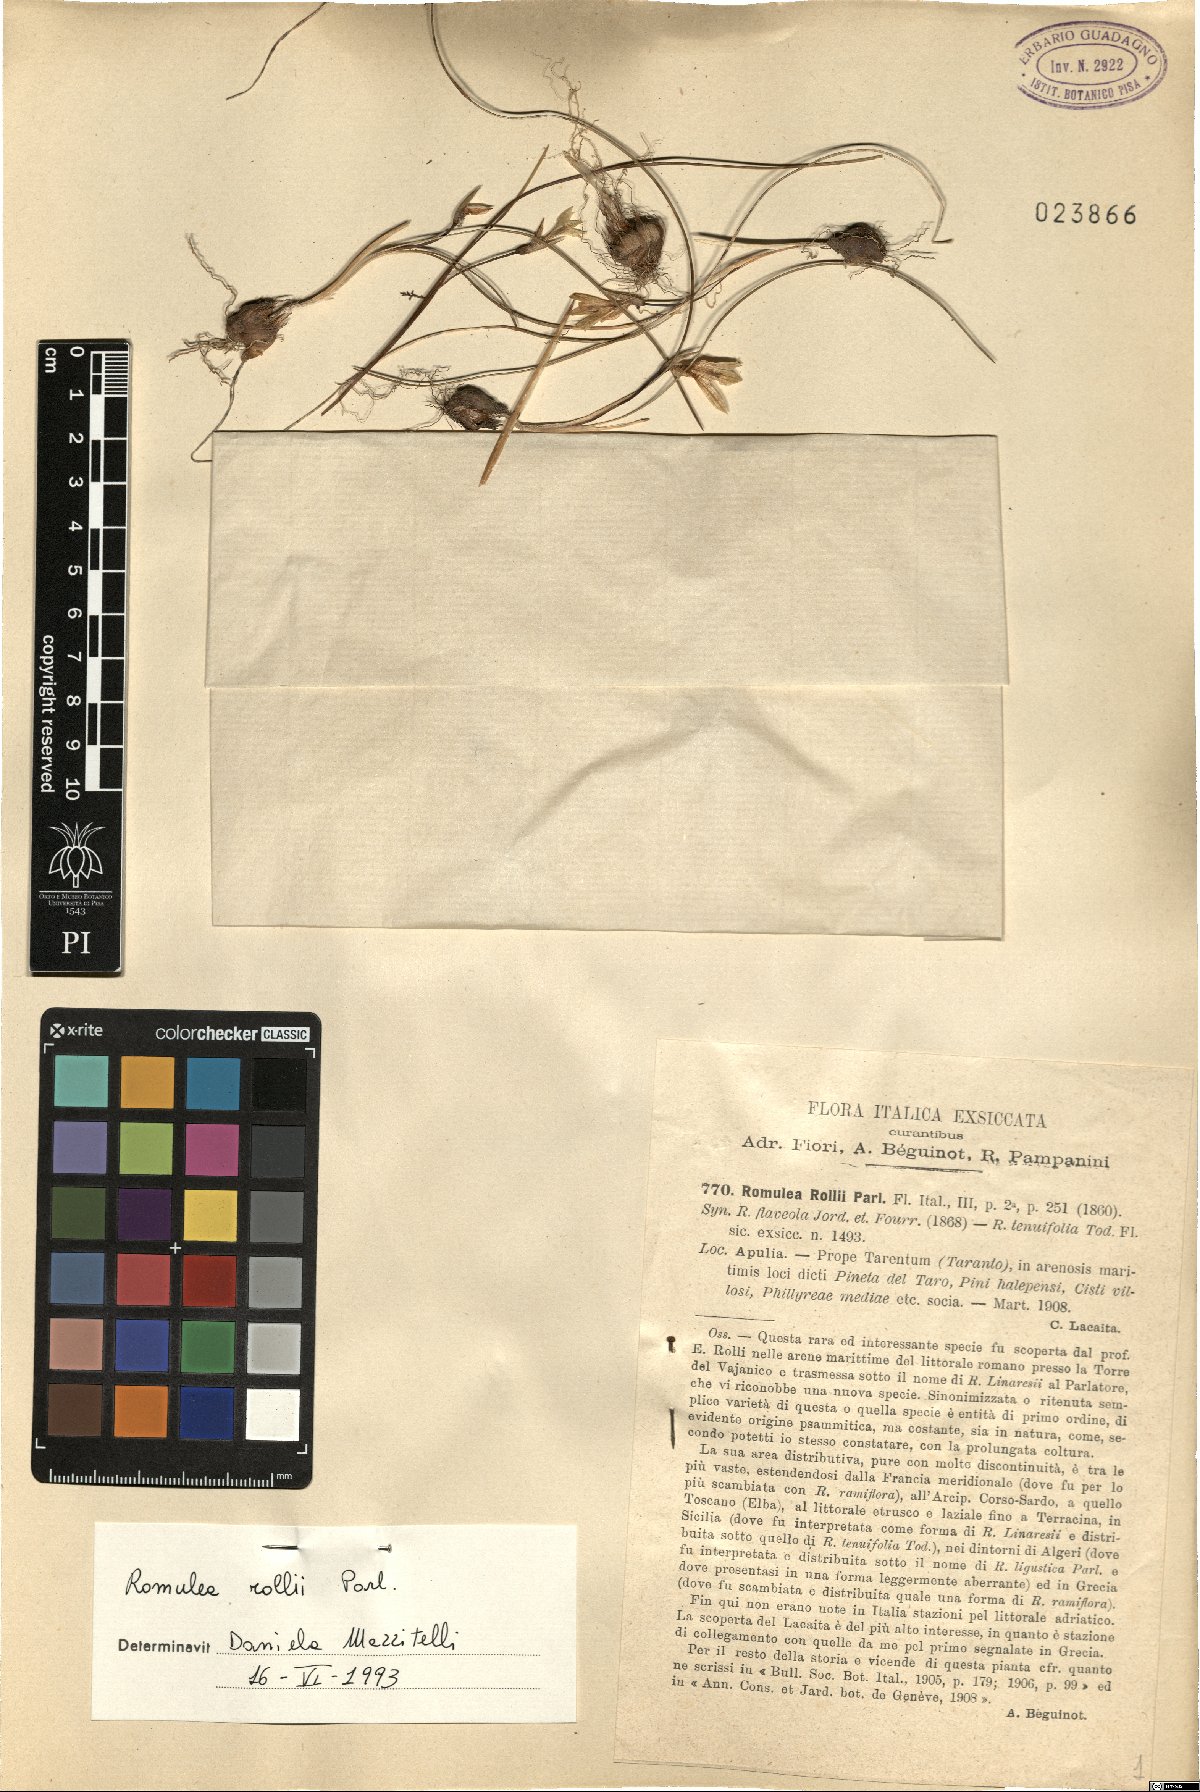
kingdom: Plantae
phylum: Tracheophyta
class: Liliopsida
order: Asparagales
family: Iridaceae
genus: Romulea
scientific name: Romulea columnae
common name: Sand-crocus
